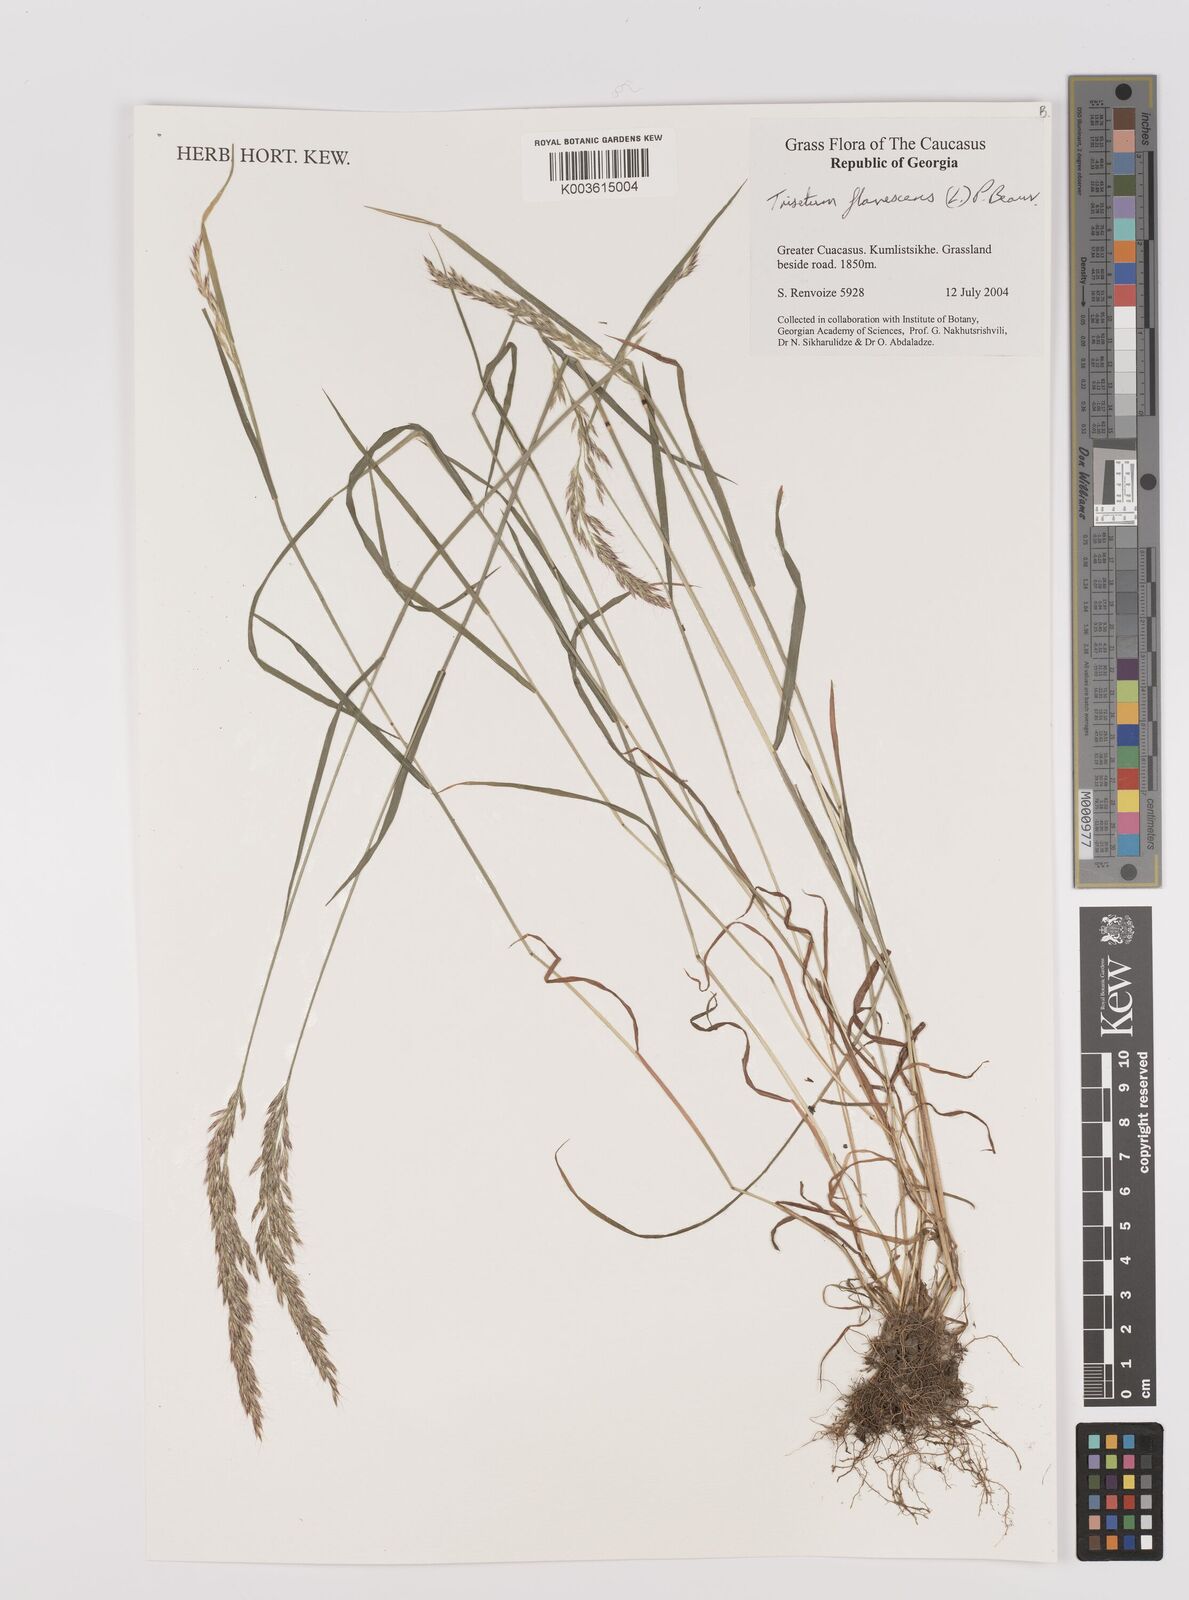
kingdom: Plantae
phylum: Tracheophyta
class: Liliopsida
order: Poales
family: Poaceae
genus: Trisetum
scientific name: Trisetum flavescens
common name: Yellow oat-grass
